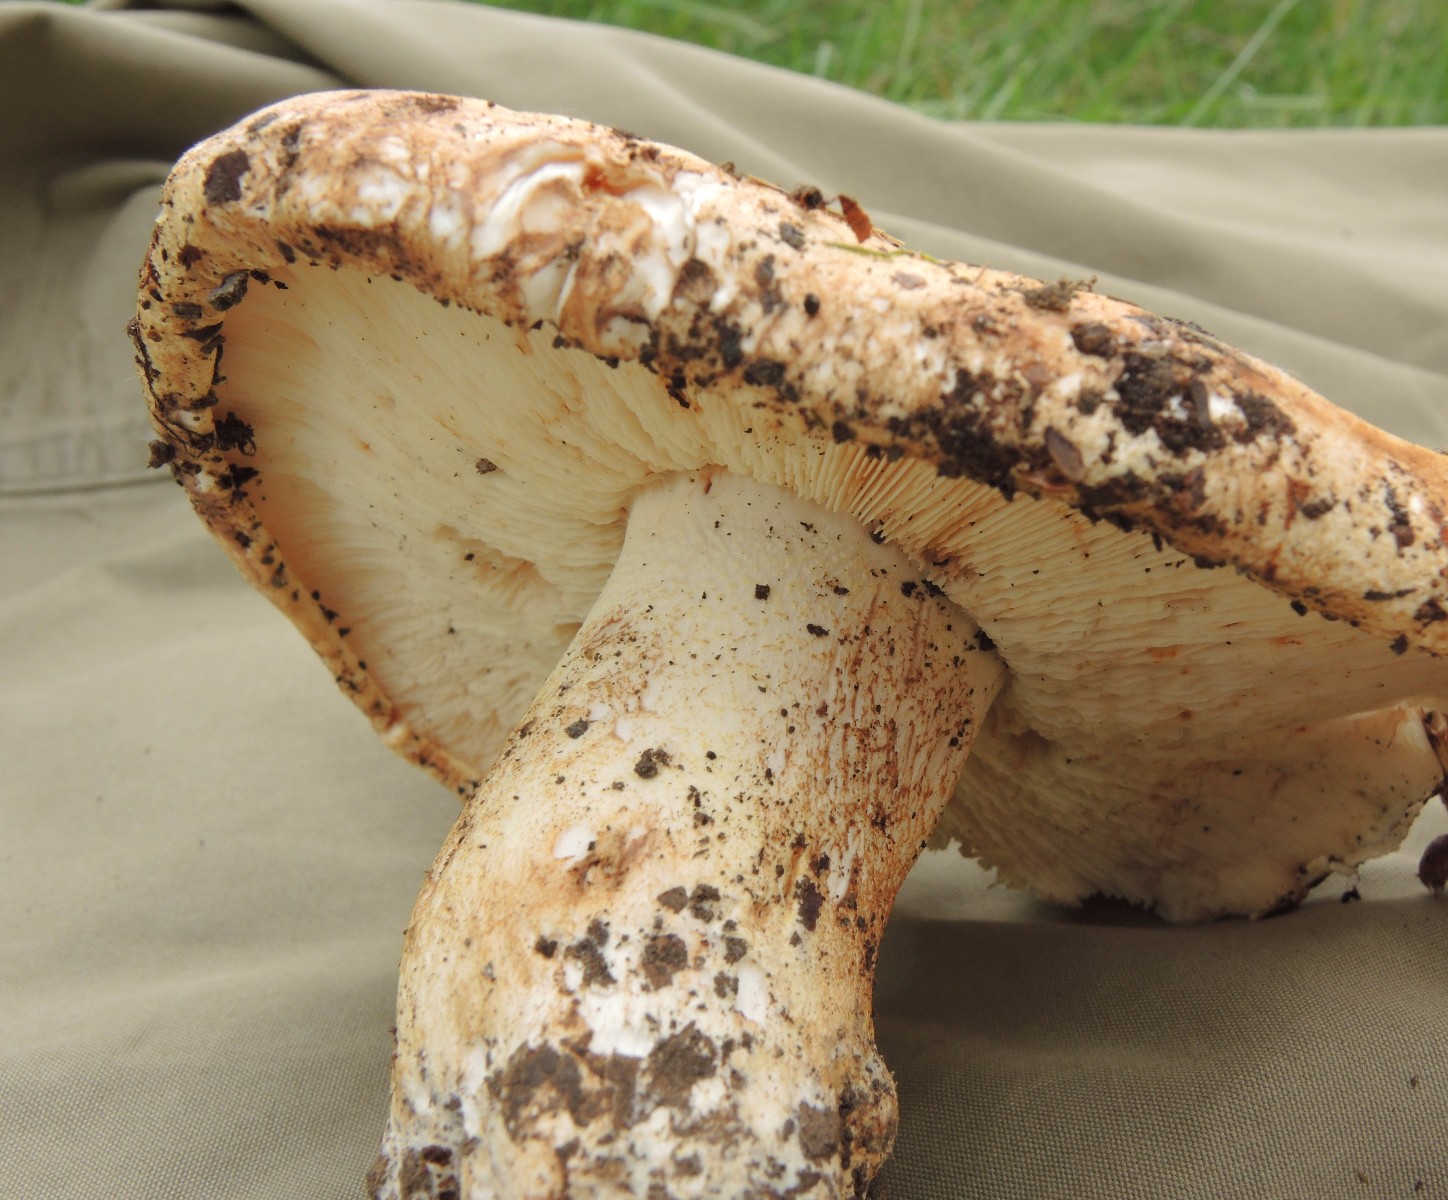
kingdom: Fungi
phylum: Basidiomycota
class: Agaricomycetes
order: Agaricales
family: Tricholomataceae
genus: Tricholoma
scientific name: Tricholoma acerbum
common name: stor ridderhat
